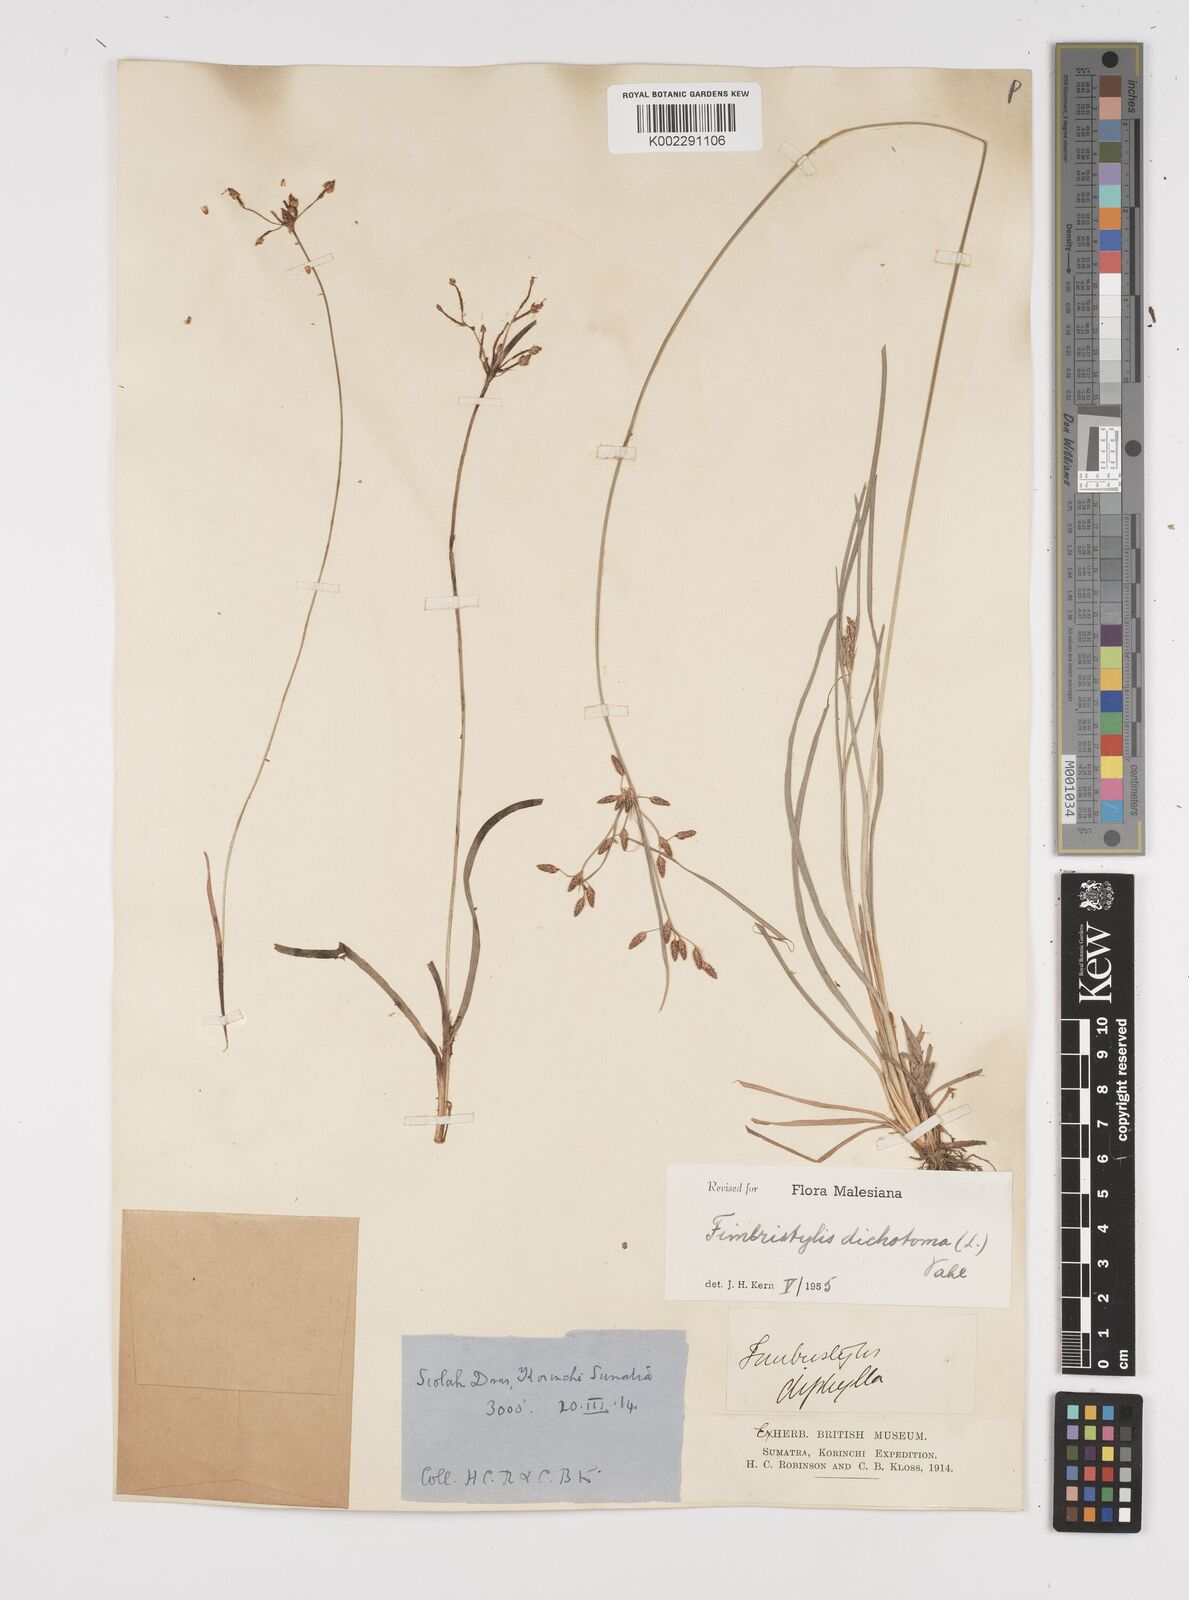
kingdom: Plantae
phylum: Tracheophyta
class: Liliopsida
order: Poales
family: Cyperaceae
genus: Fimbristylis
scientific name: Fimbristylis dichotoma
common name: Forked fimbry
